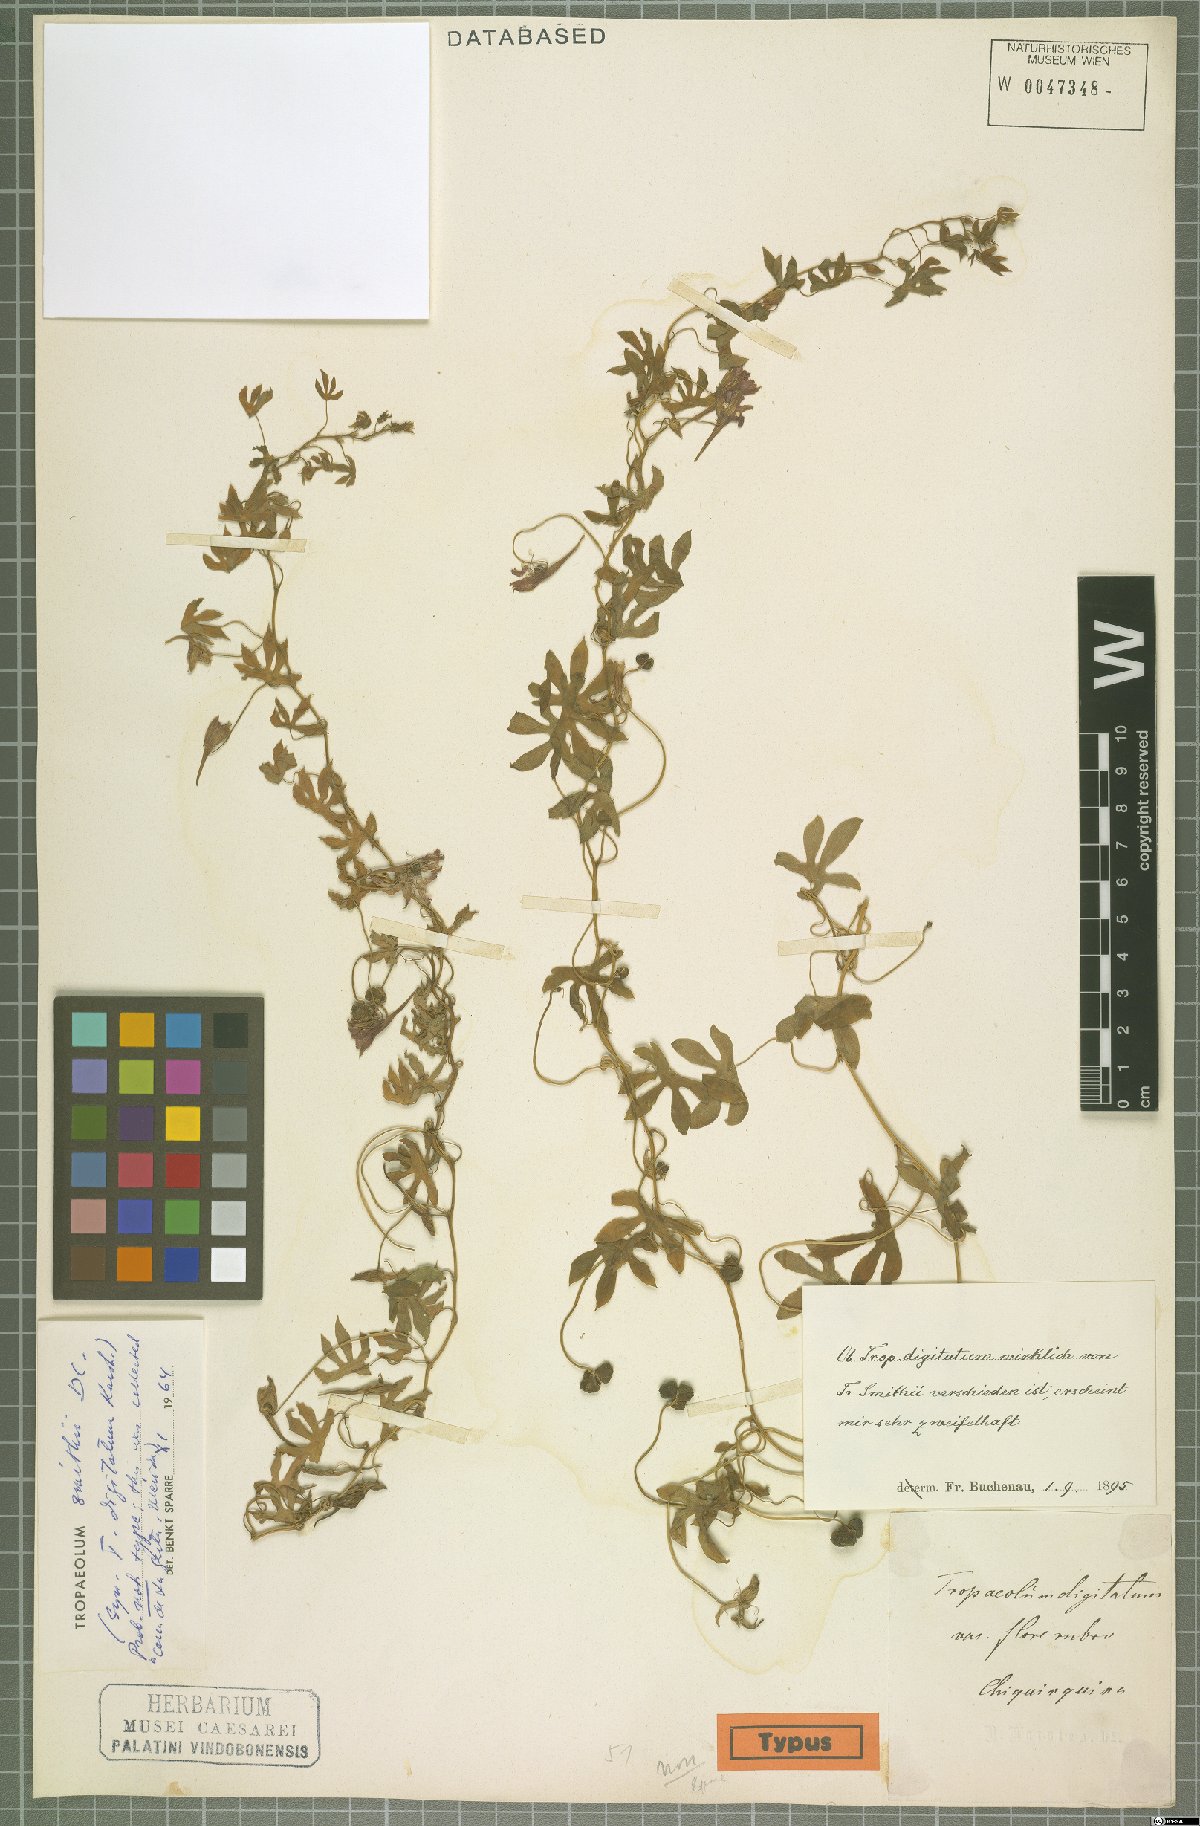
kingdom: Plantae
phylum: Tracheophyta
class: Magnoliopsida
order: Brassicales
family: Tropaeolaceae
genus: Tropaeolum
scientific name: Tropaeolum smithii
